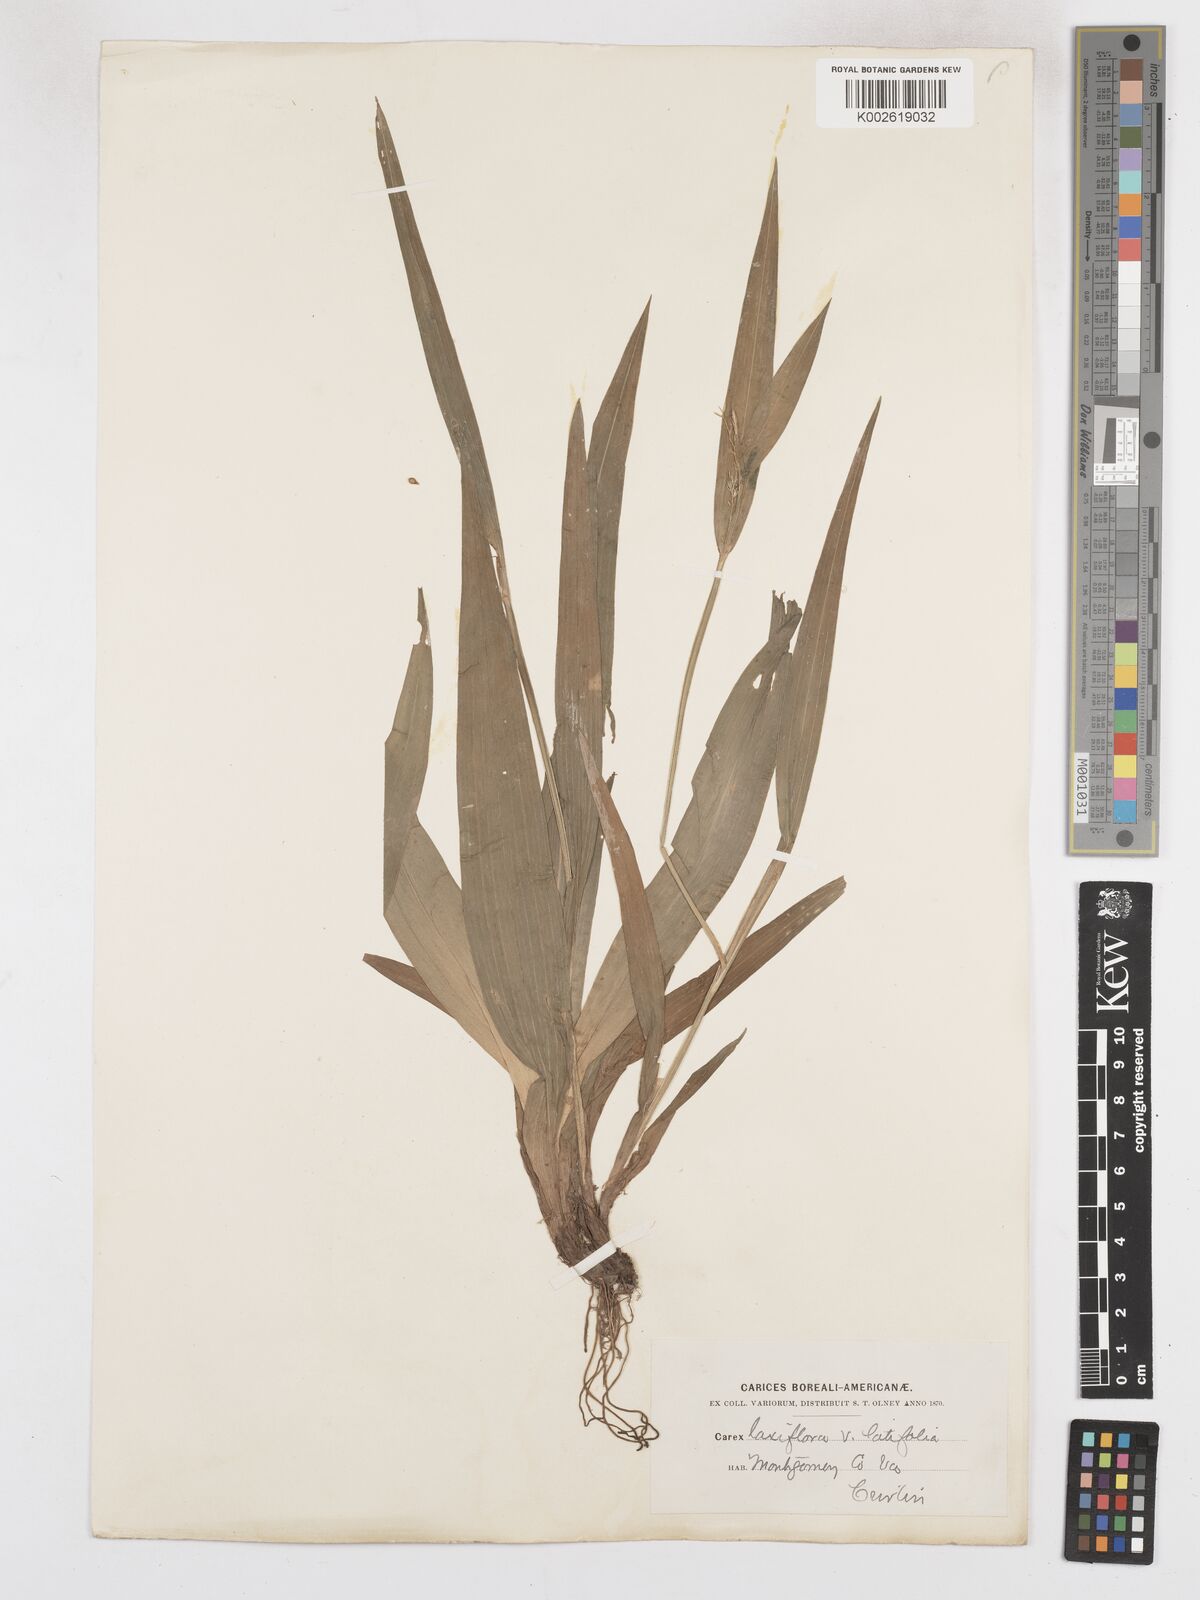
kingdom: Plantae
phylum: Tracheophyta
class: Liliopsida
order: Poales
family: Cyperaceae
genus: Carex
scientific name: Carex albursina
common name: Blunt-scale wood sedge
